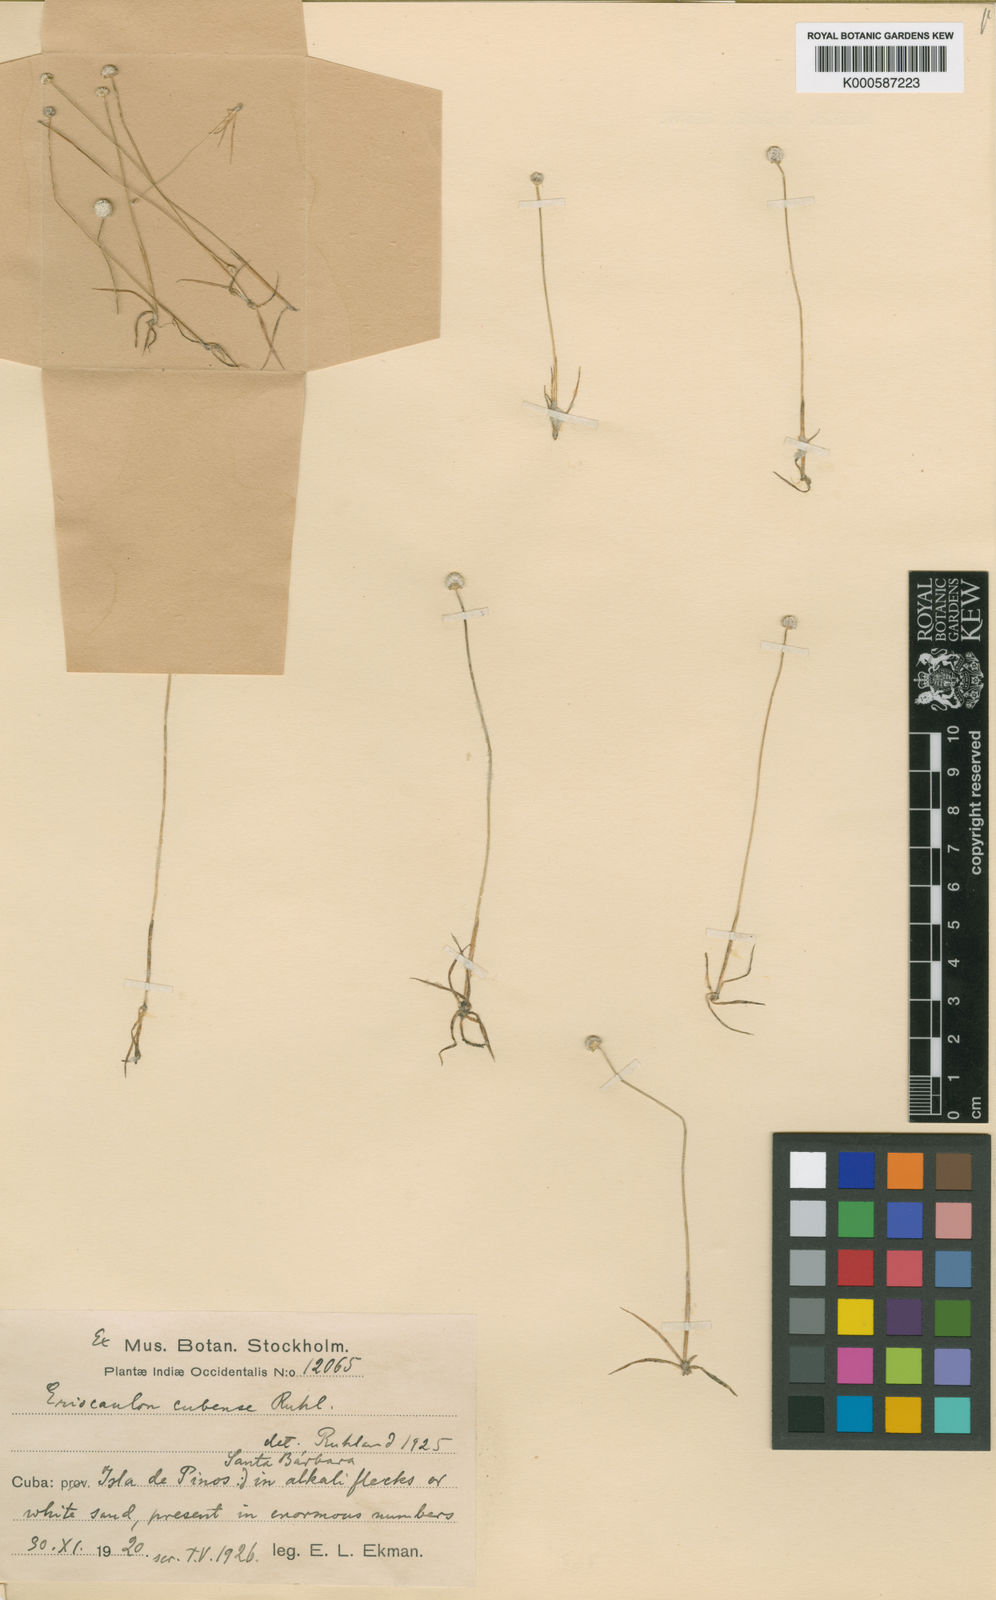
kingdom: Plantae
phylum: Tracheophyta
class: Liliopsida
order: Poales
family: Eriocaulaceae
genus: Eriocaulon
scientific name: Eriocaulon cubense
